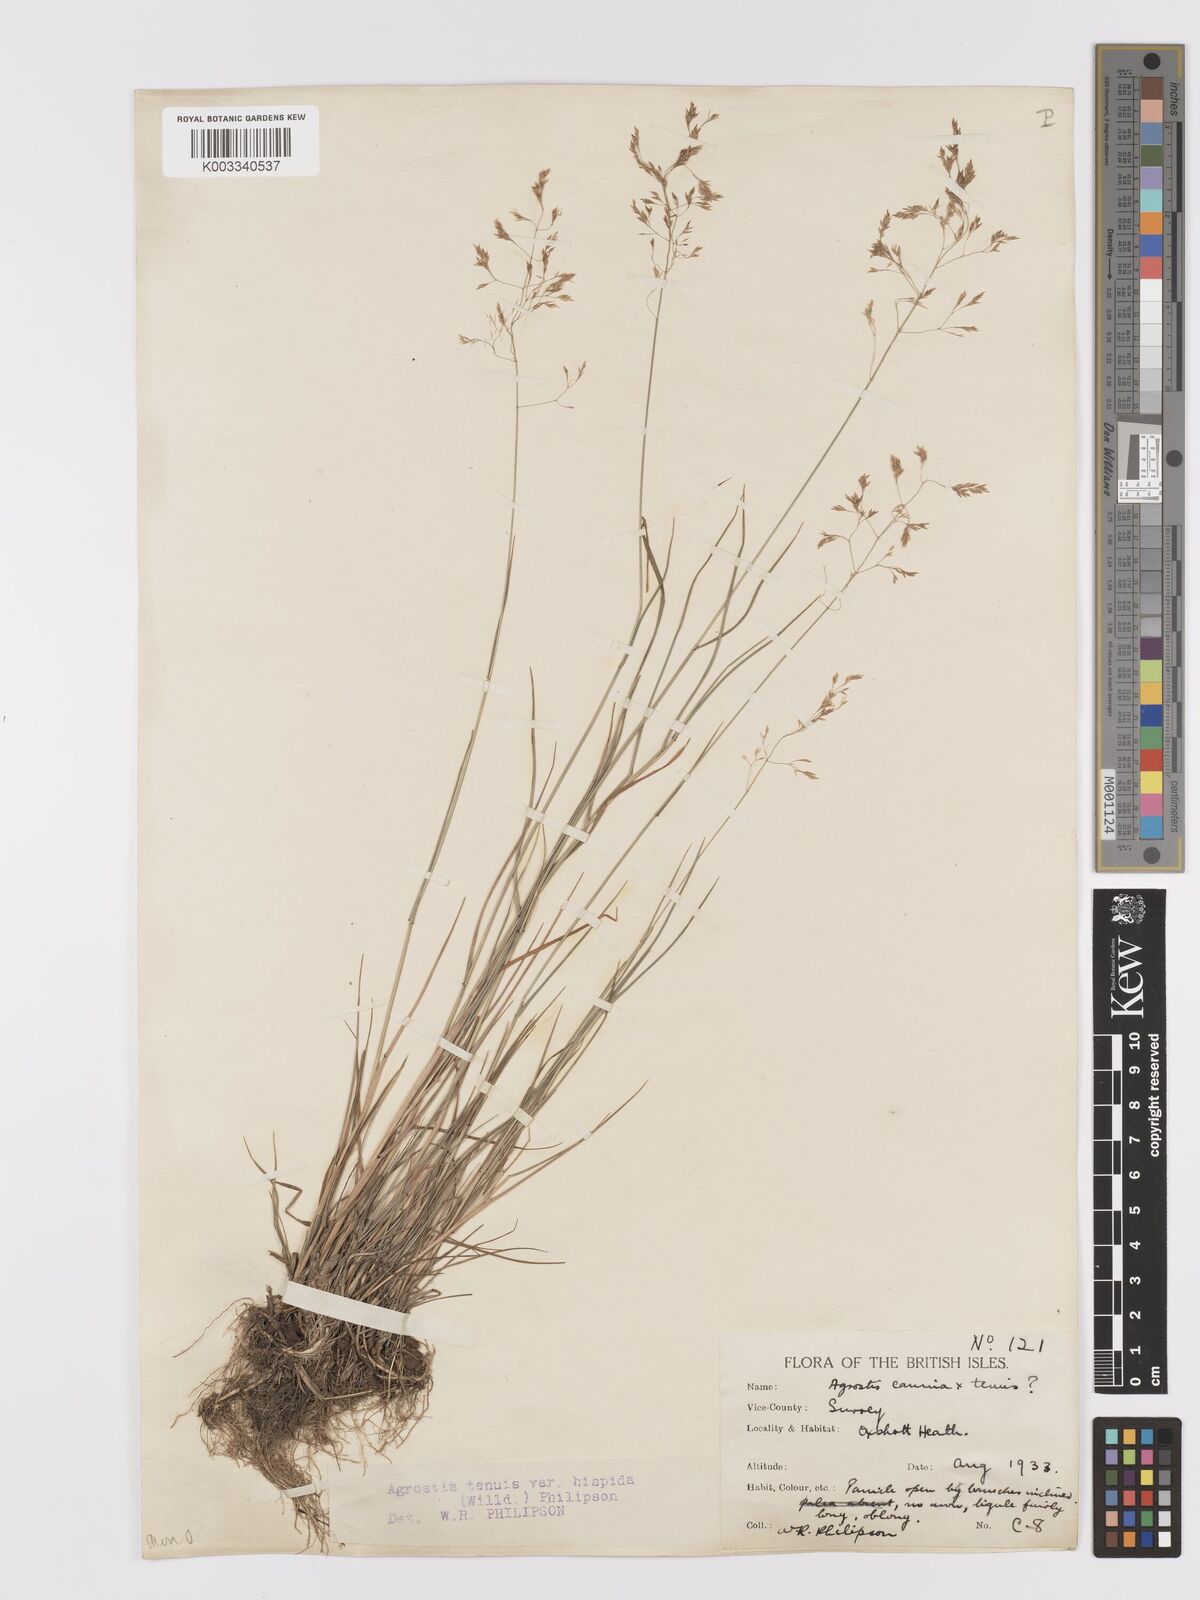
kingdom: Plantae
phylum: Tracheophyta
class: Liliopsida
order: Poales
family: Poaceae
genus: Agrostis
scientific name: Agrostis capillaris
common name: Colonial bentgrass
